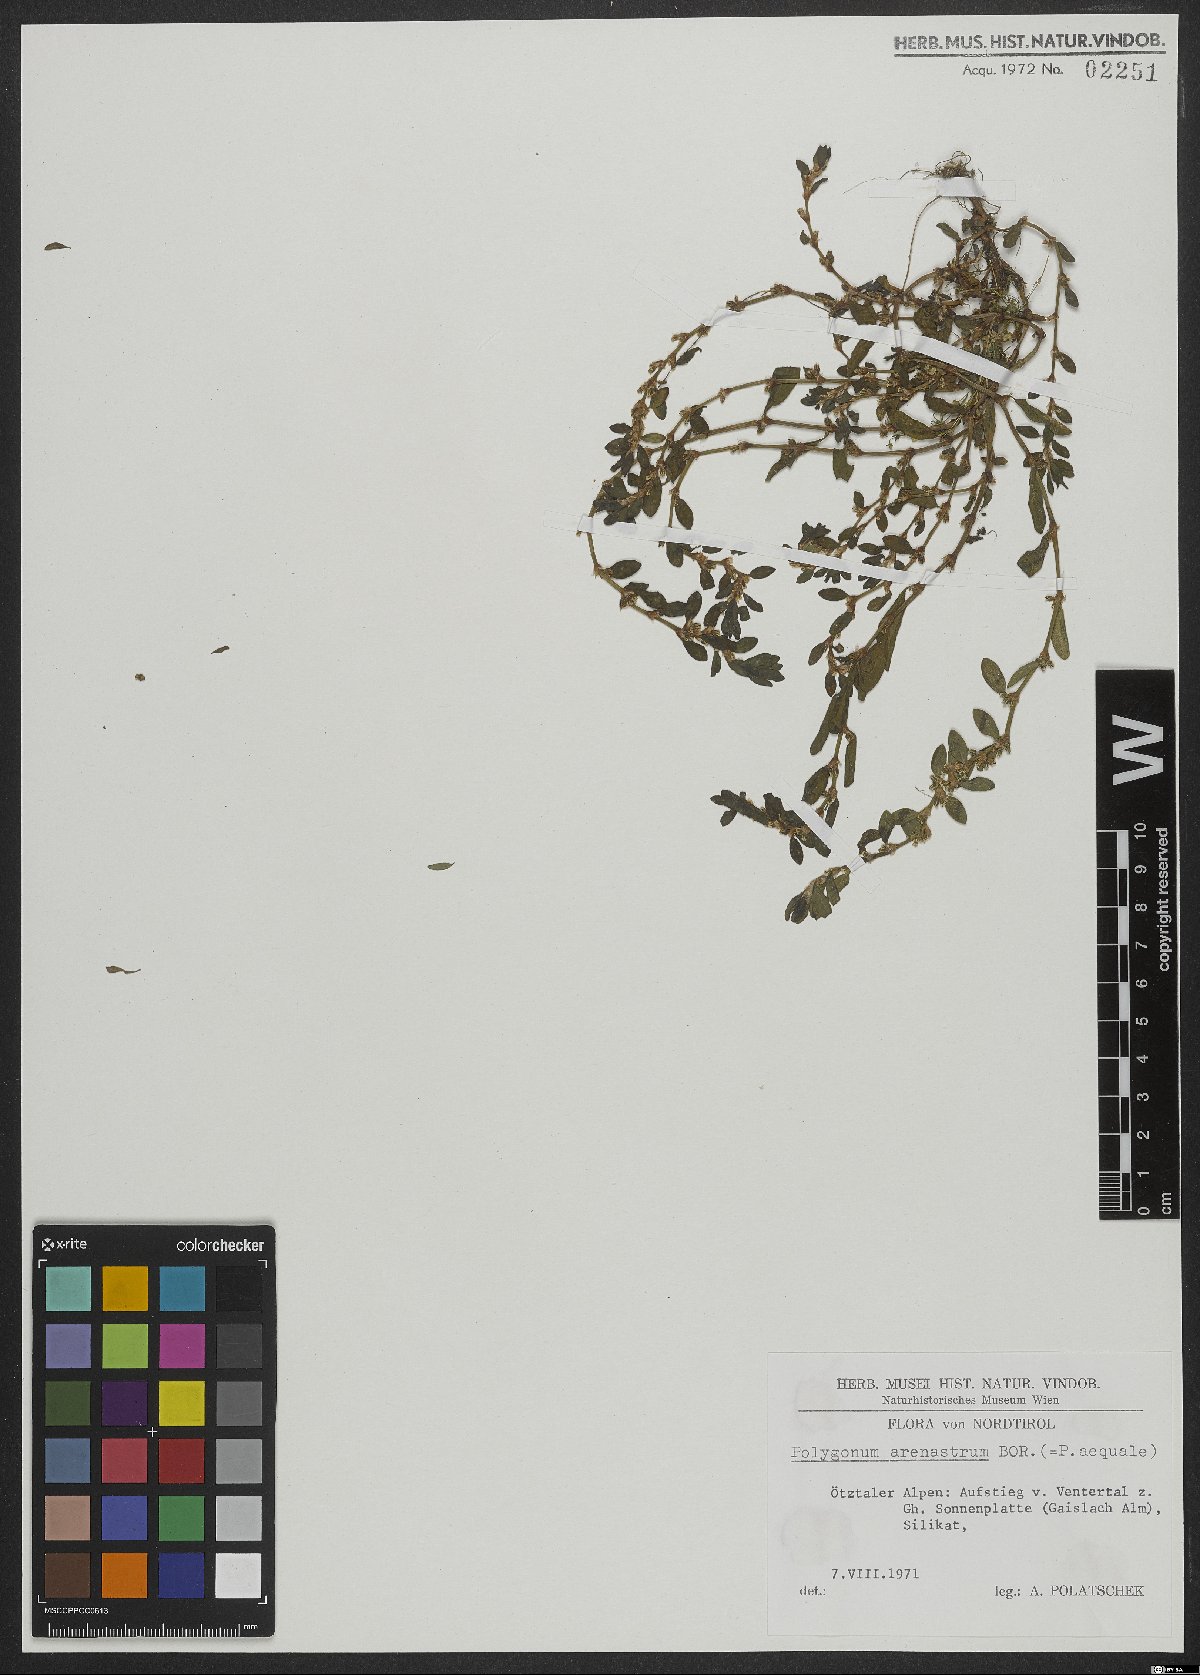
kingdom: Plantae
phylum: Tracheophyta
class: Magnoliopsida
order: Caryophyllales
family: Polygonaceae
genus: Polygonum
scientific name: Polygonum arenastrum
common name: Equal-leaved knotgrass
